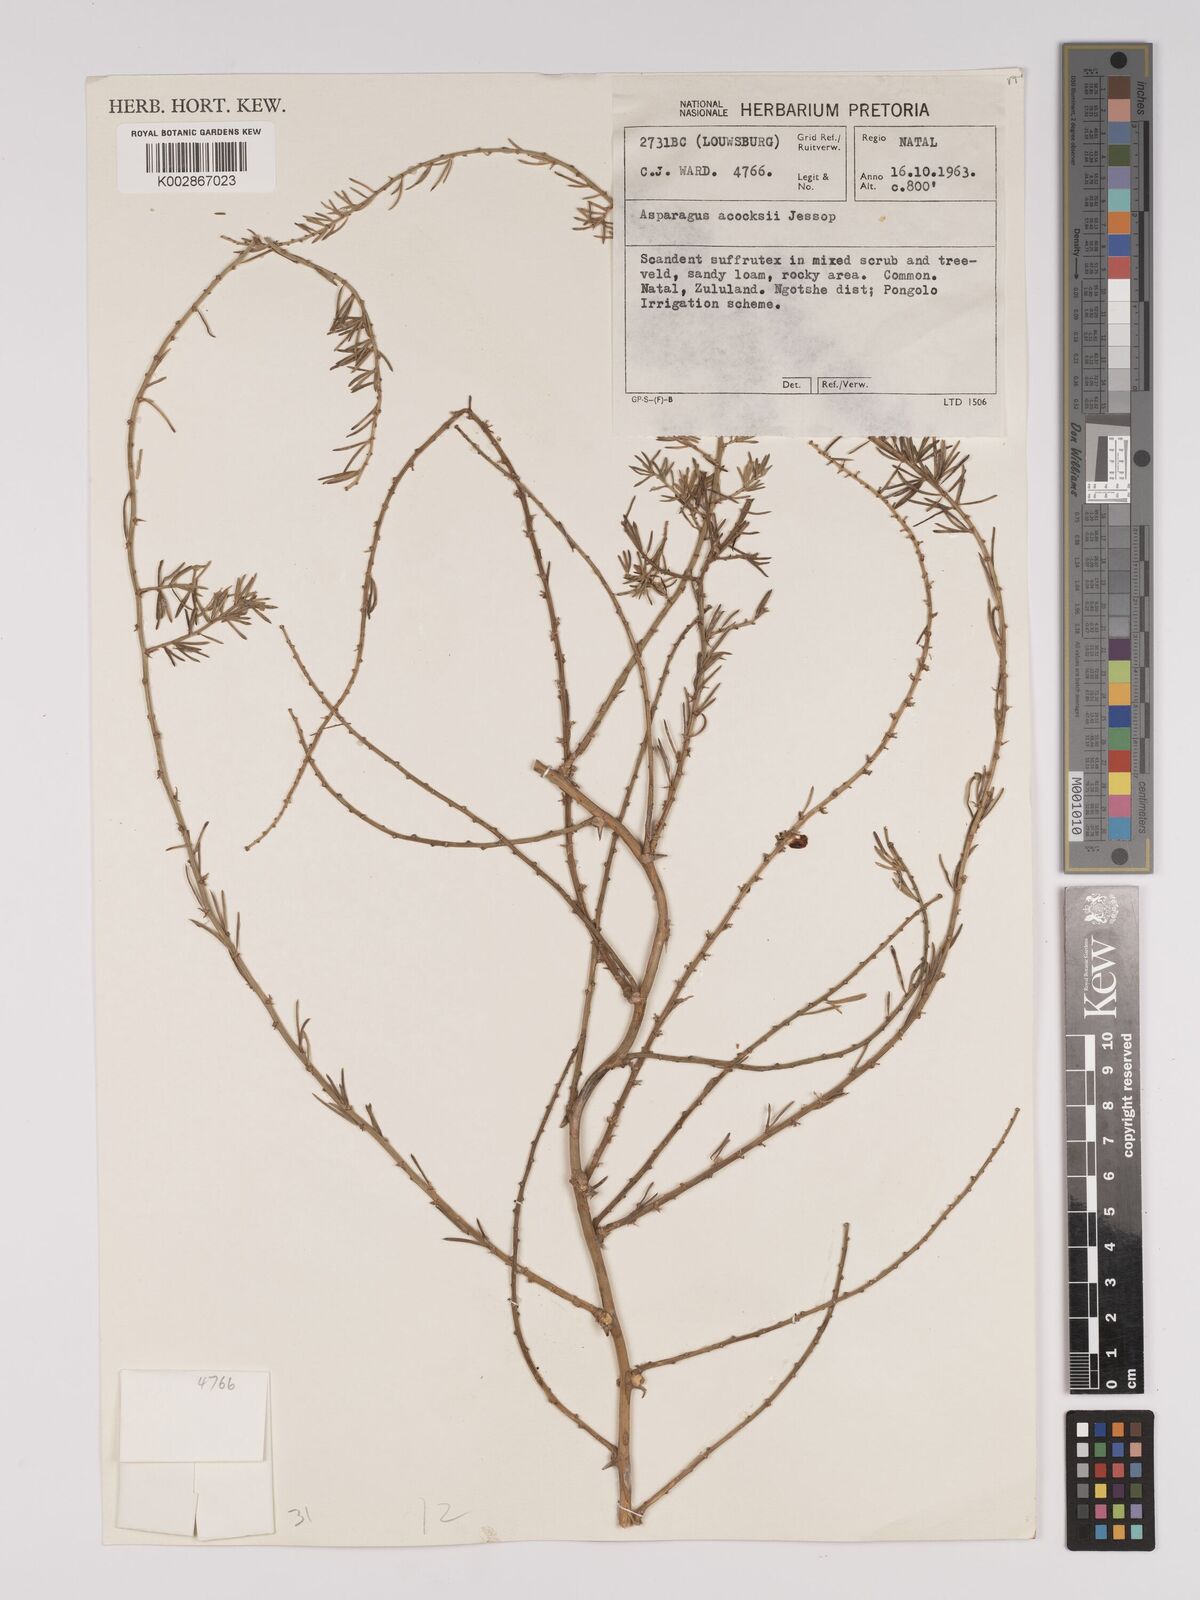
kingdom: Plantae
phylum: Tracheophyta
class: Liliopsida
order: Asparagales
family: Asparagaceae
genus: Asparagus
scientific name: Asparagus acocksii
